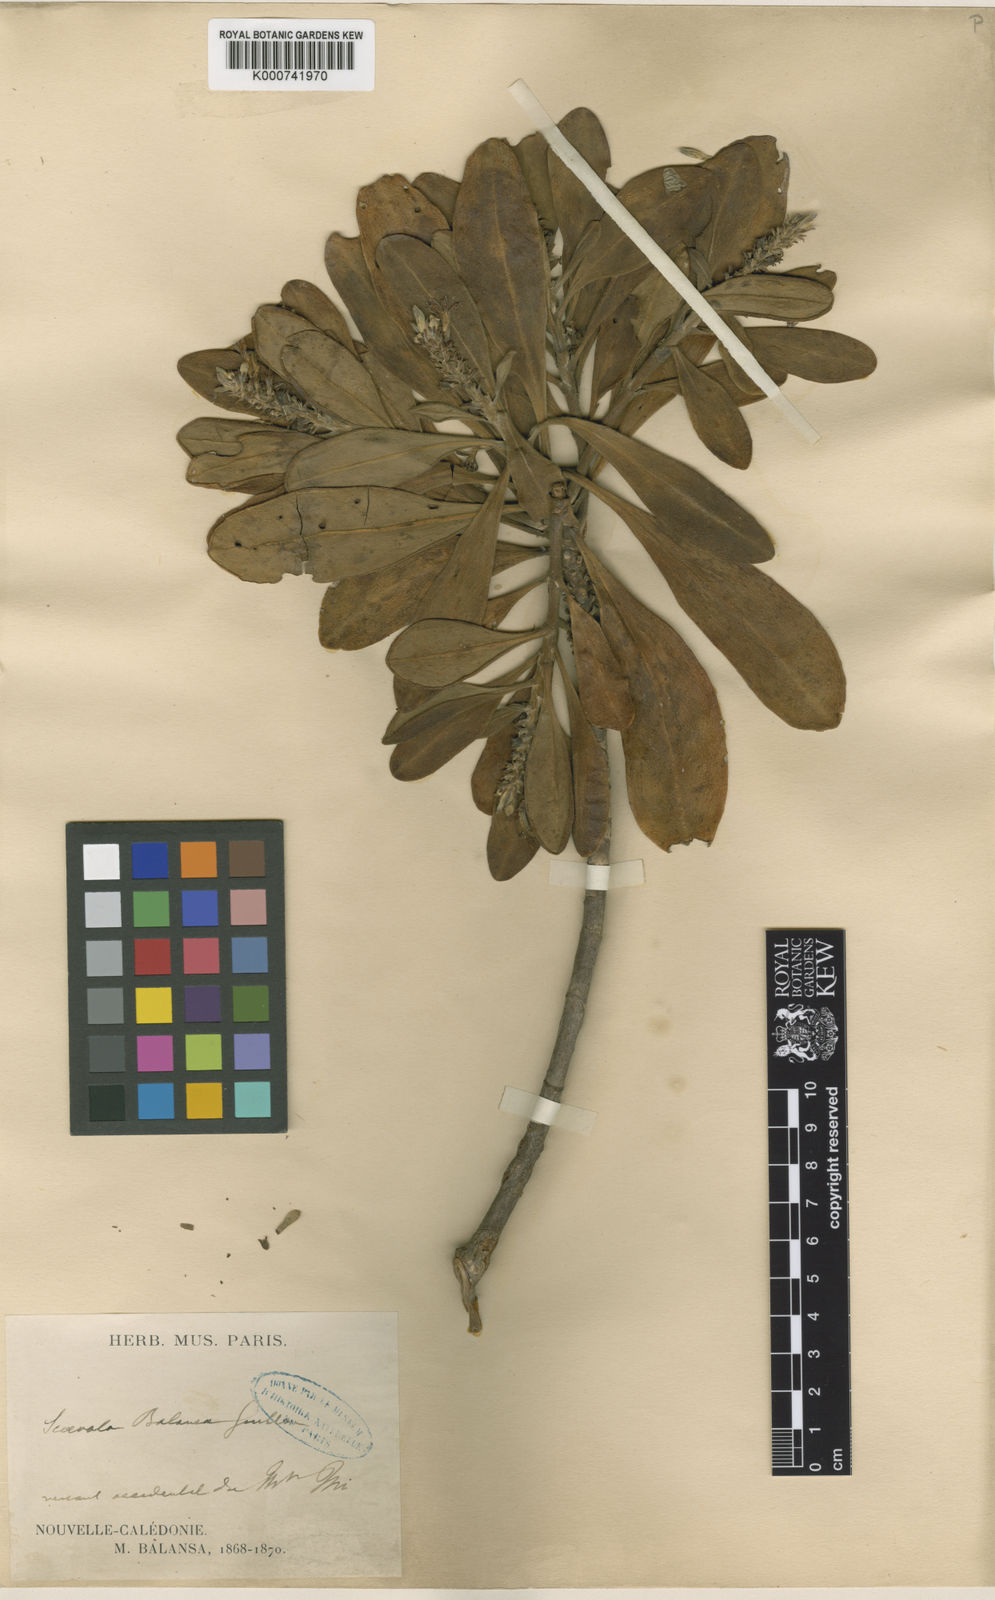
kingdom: Plantae
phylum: Tracheophyta
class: Magnoliopsida
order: Asterales
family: Goodeniaceae
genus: Scaevola
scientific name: Scaevola balansae
